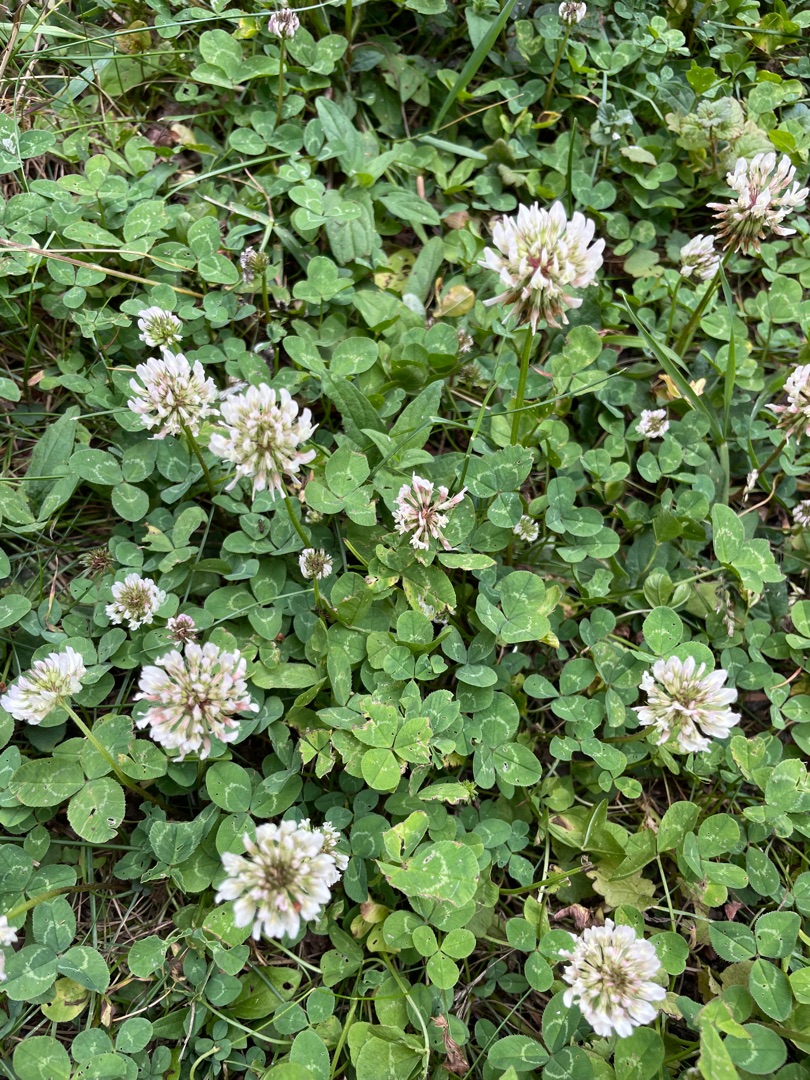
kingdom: Plantae
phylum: Tracheophyta
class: Magnoliopsida
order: Fabales
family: Fabaceae
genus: Trifolium
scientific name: Trifolium repens
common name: Hvid-kløver
